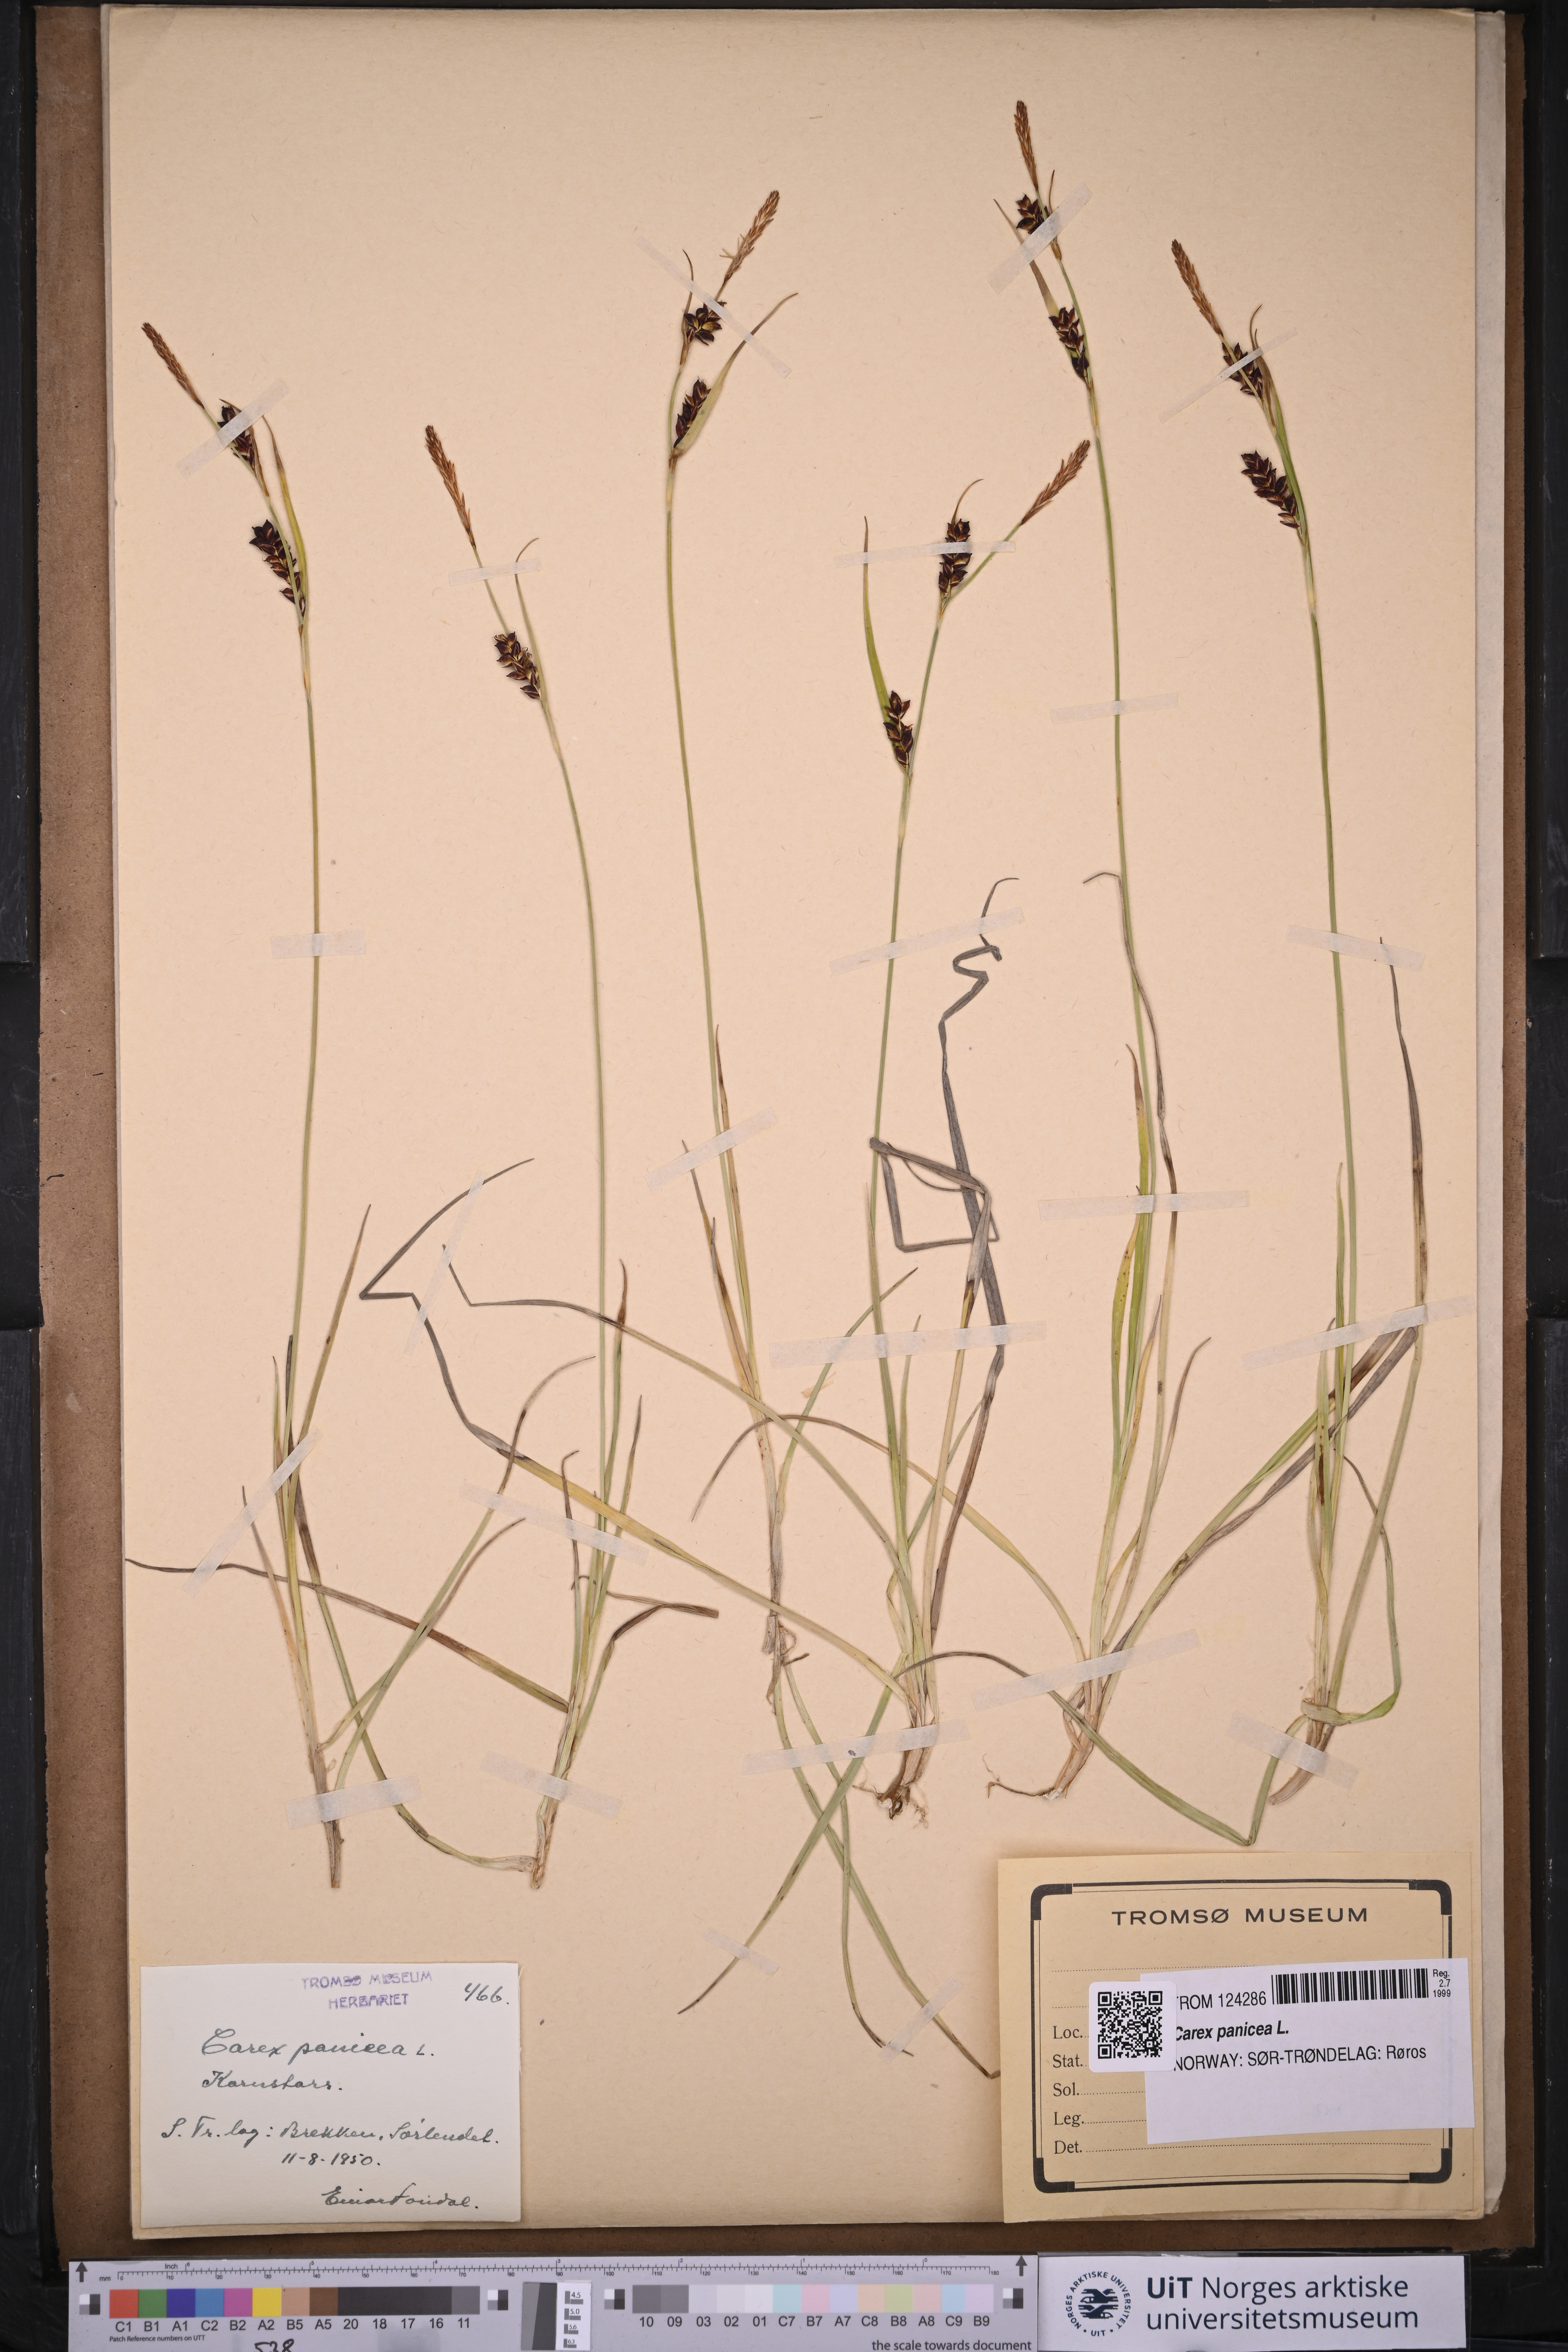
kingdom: Plantae
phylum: Tracheophyta
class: Liliopsida
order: Poales
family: Cyperaceae
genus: Carex
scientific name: Carex panicea
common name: Carnation sedge
